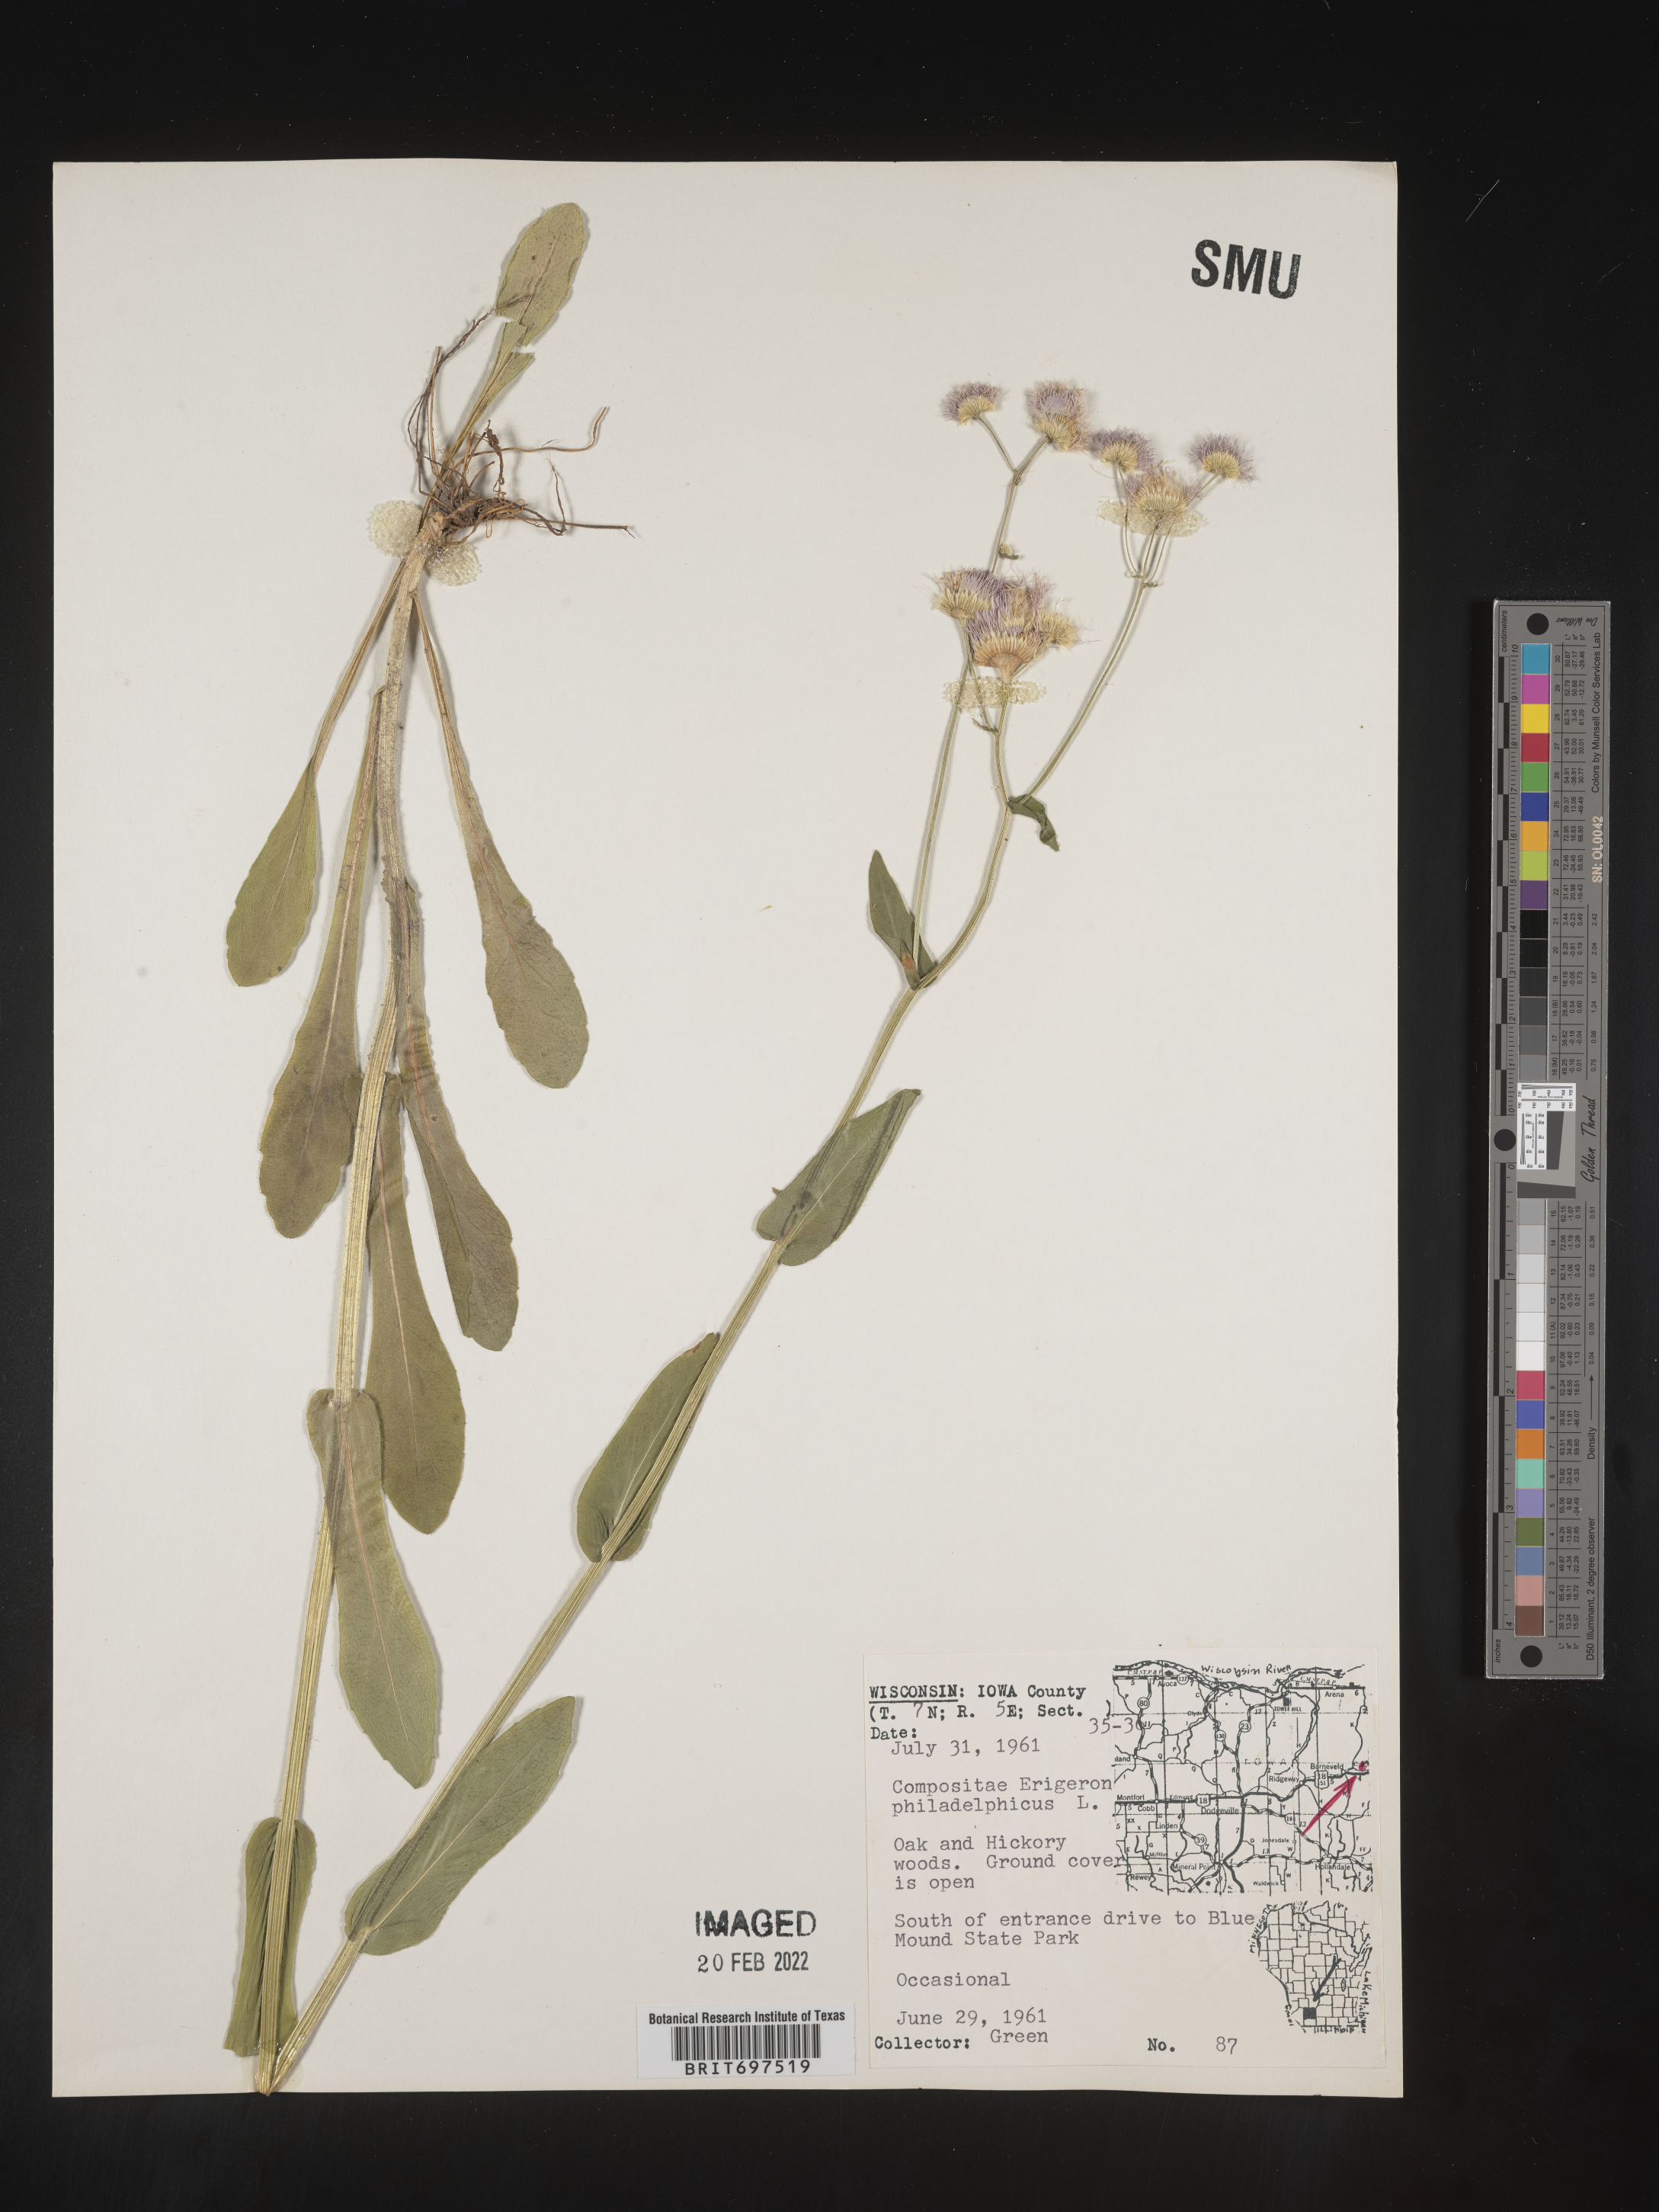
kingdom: Plantae
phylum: Tracheophyta
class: Magnoliopsida
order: Asterales
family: Asteraceae
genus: Erigeron
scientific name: Erigeron philadelphicus
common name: Robin's-plantain
